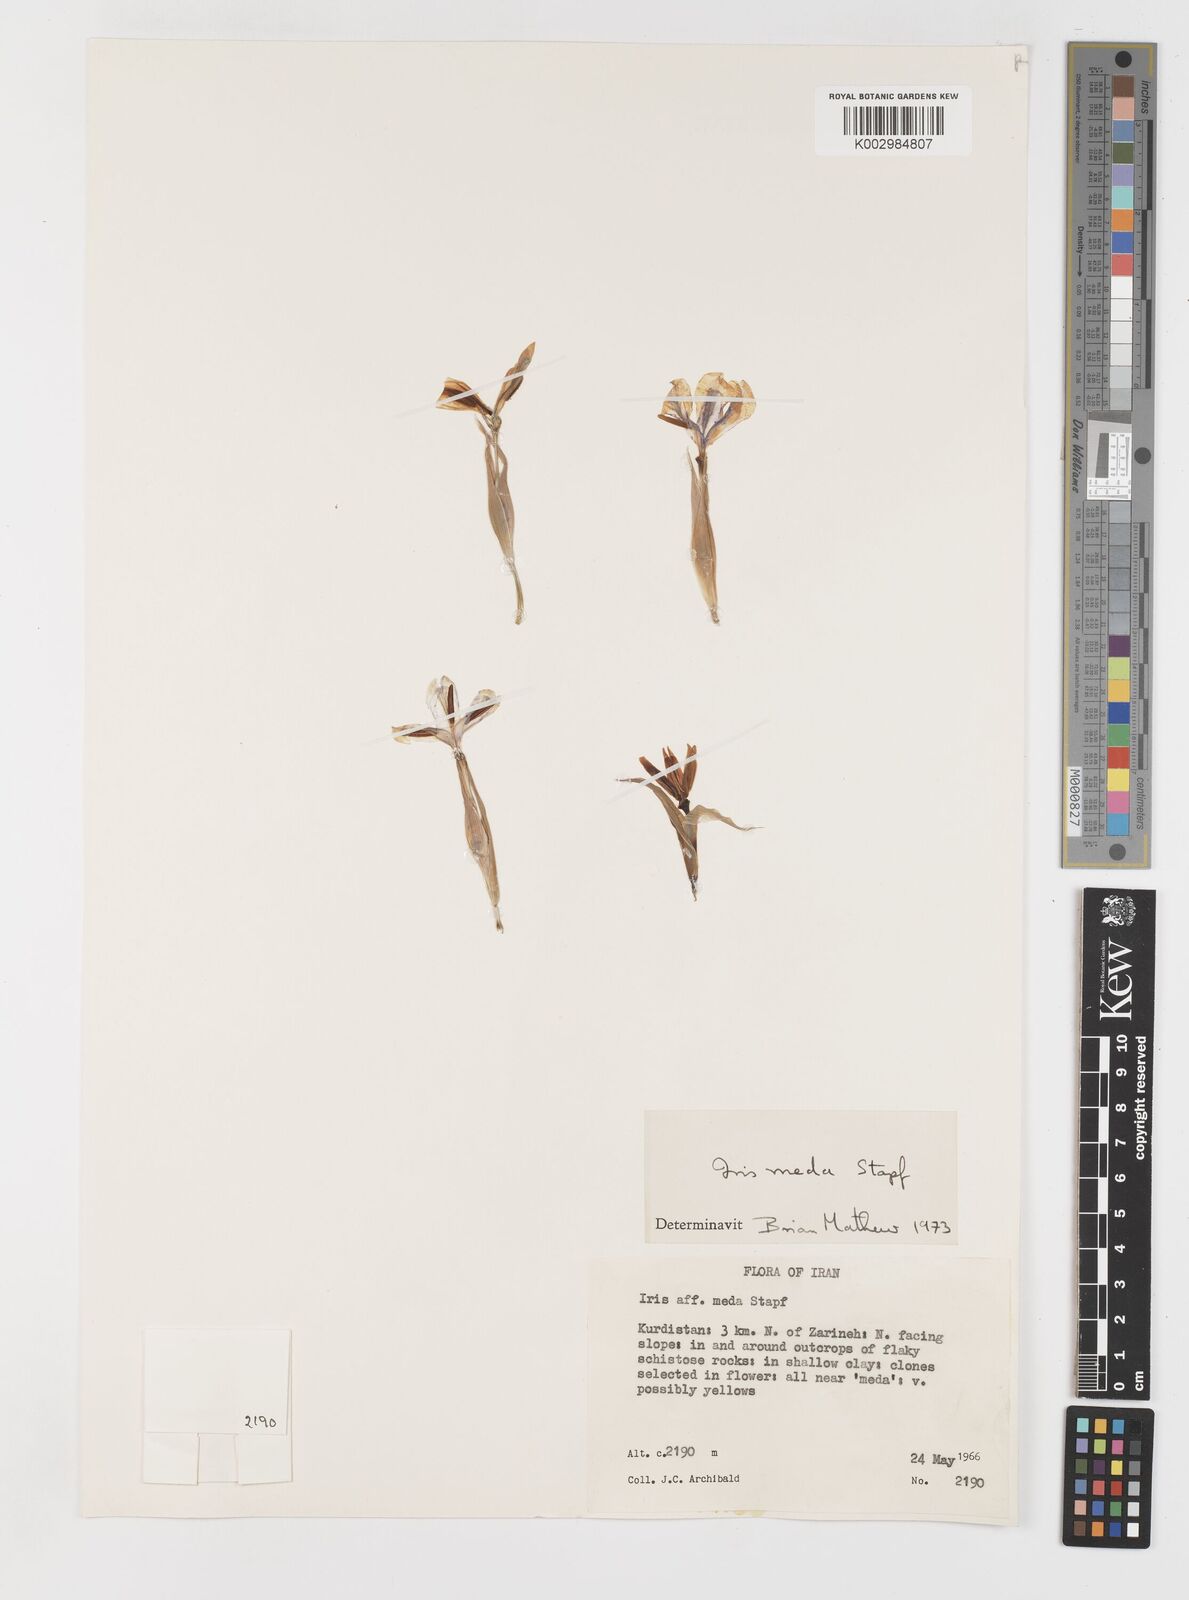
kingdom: Plantae
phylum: Tracheophyta
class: Liliopsida
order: Asparagales
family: Iridaceae
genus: Iris
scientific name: Iris meda
